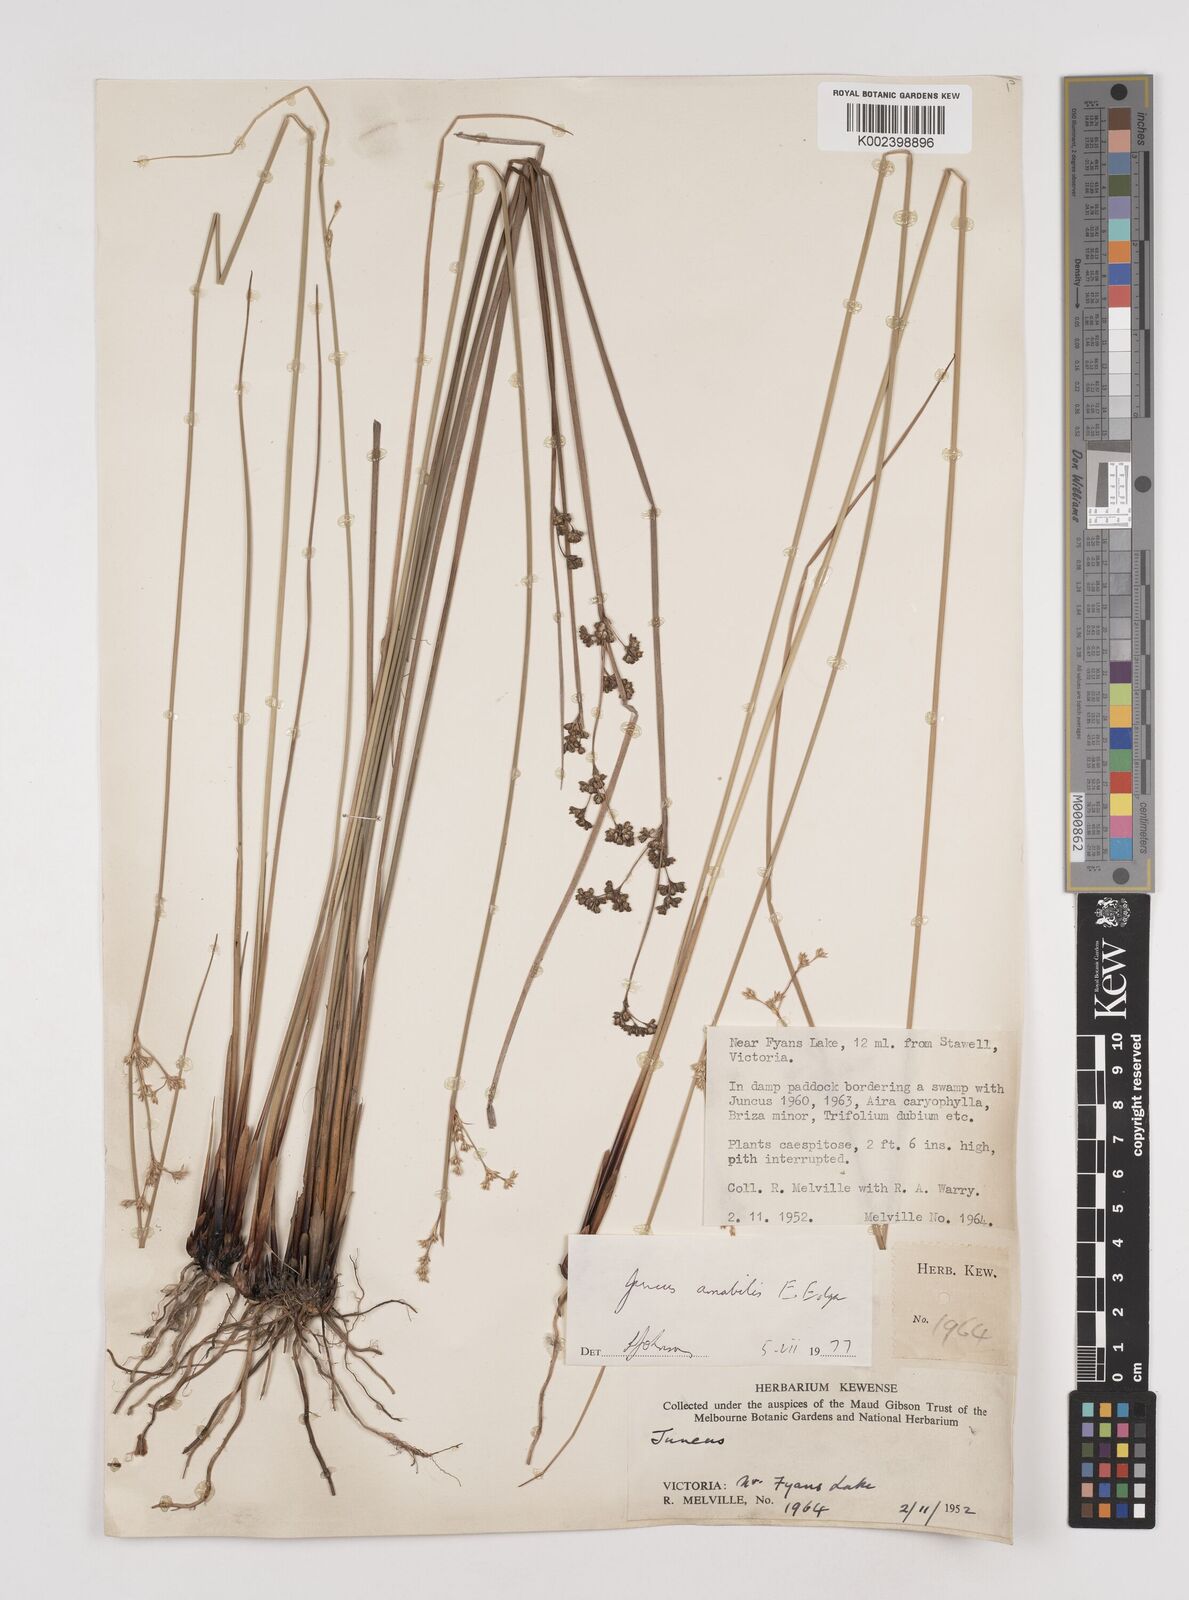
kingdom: Plantae
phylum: Tracheophyta
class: Liliopsida
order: Poales
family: Juncaceae
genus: Juncus
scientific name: Juncus amabilis
